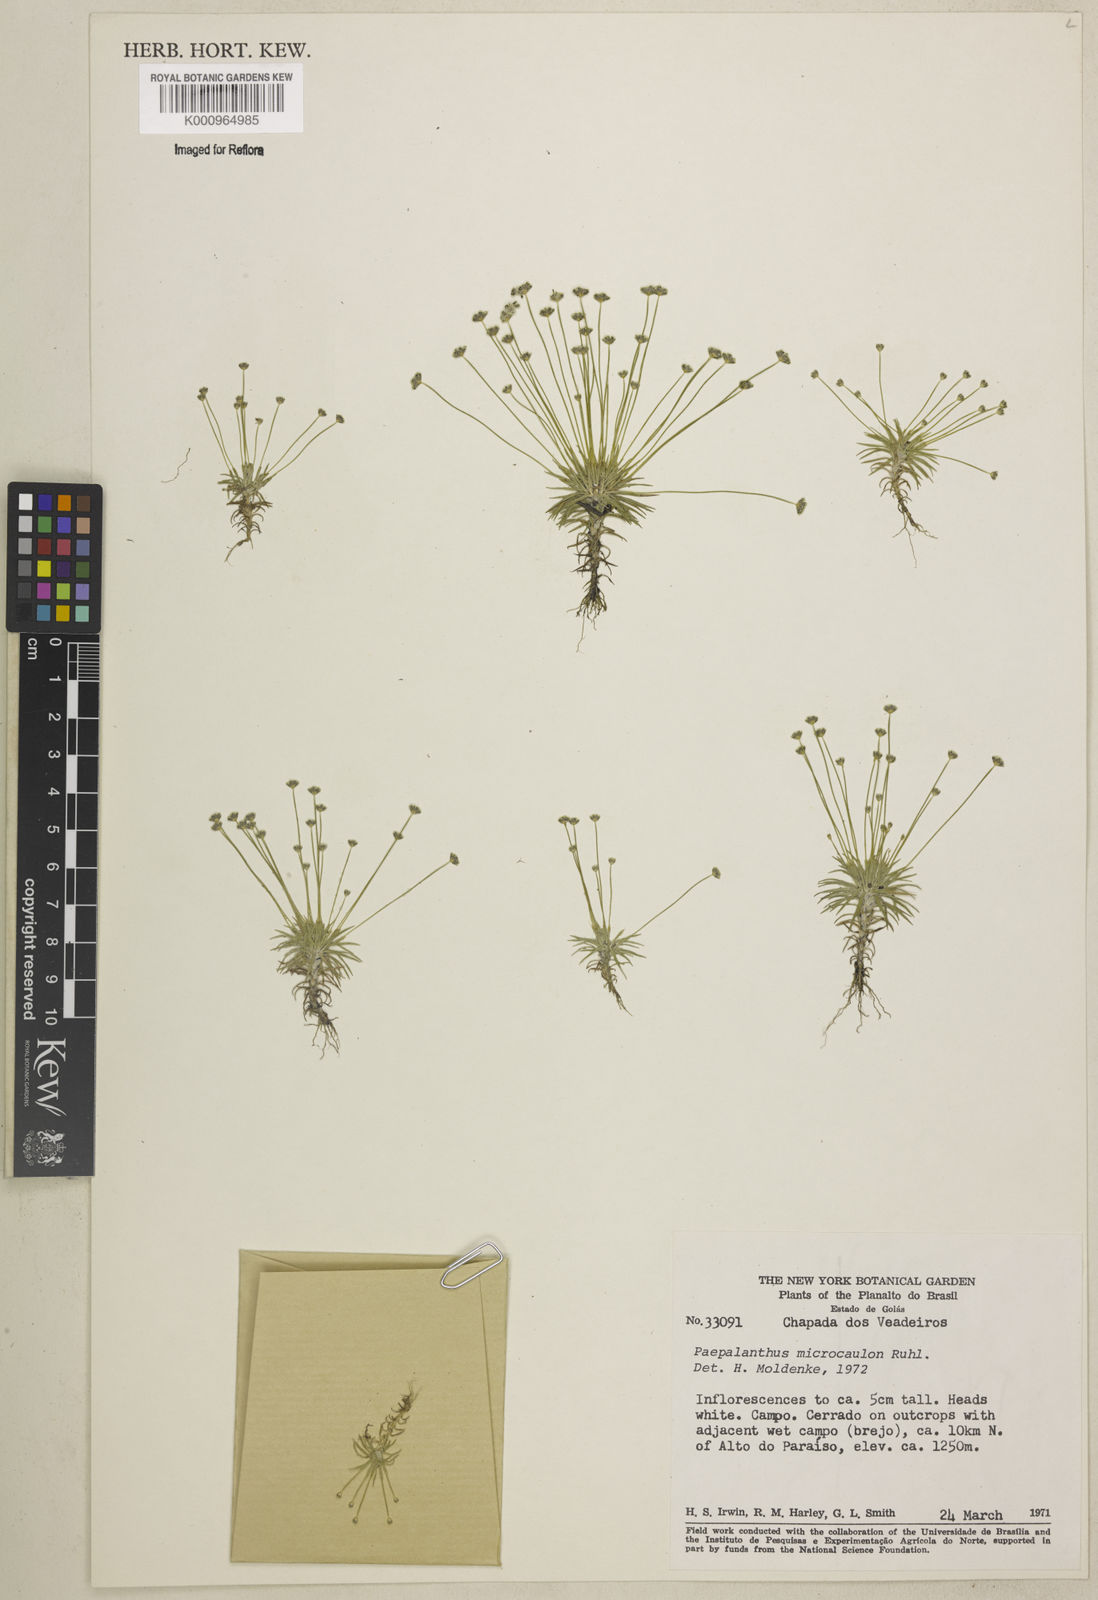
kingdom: Plantae
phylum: Tracheophyta
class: Liliopsida
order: Poales
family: Eriocaulaceae
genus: Paepalanthus
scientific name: Paepalanthus microcaulon
